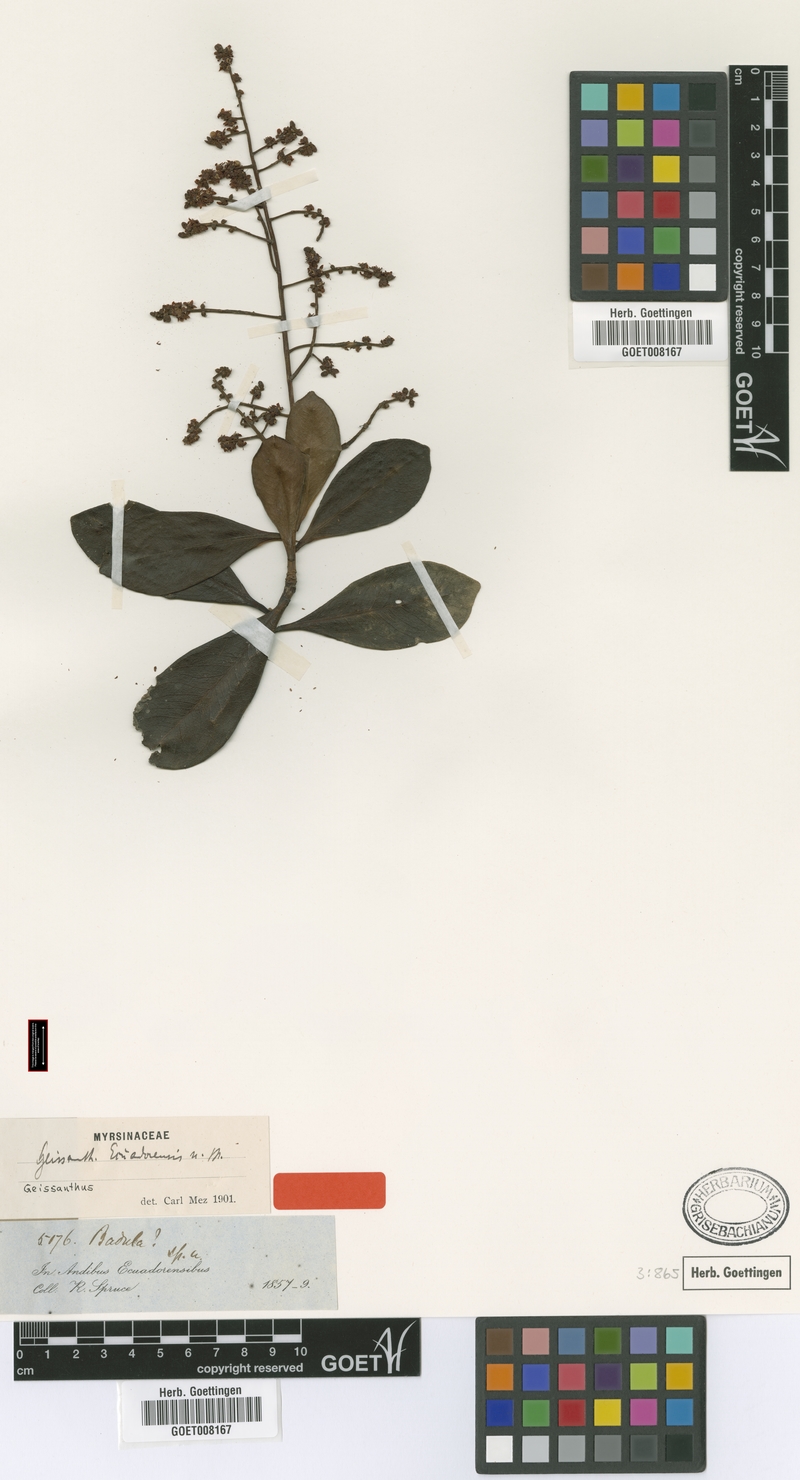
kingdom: Plantae
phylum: Tracheophyta
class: Magnoliopsida
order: Ericales
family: Primulaceae
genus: Geissanthus
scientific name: Geissanthus ecuadorensis
